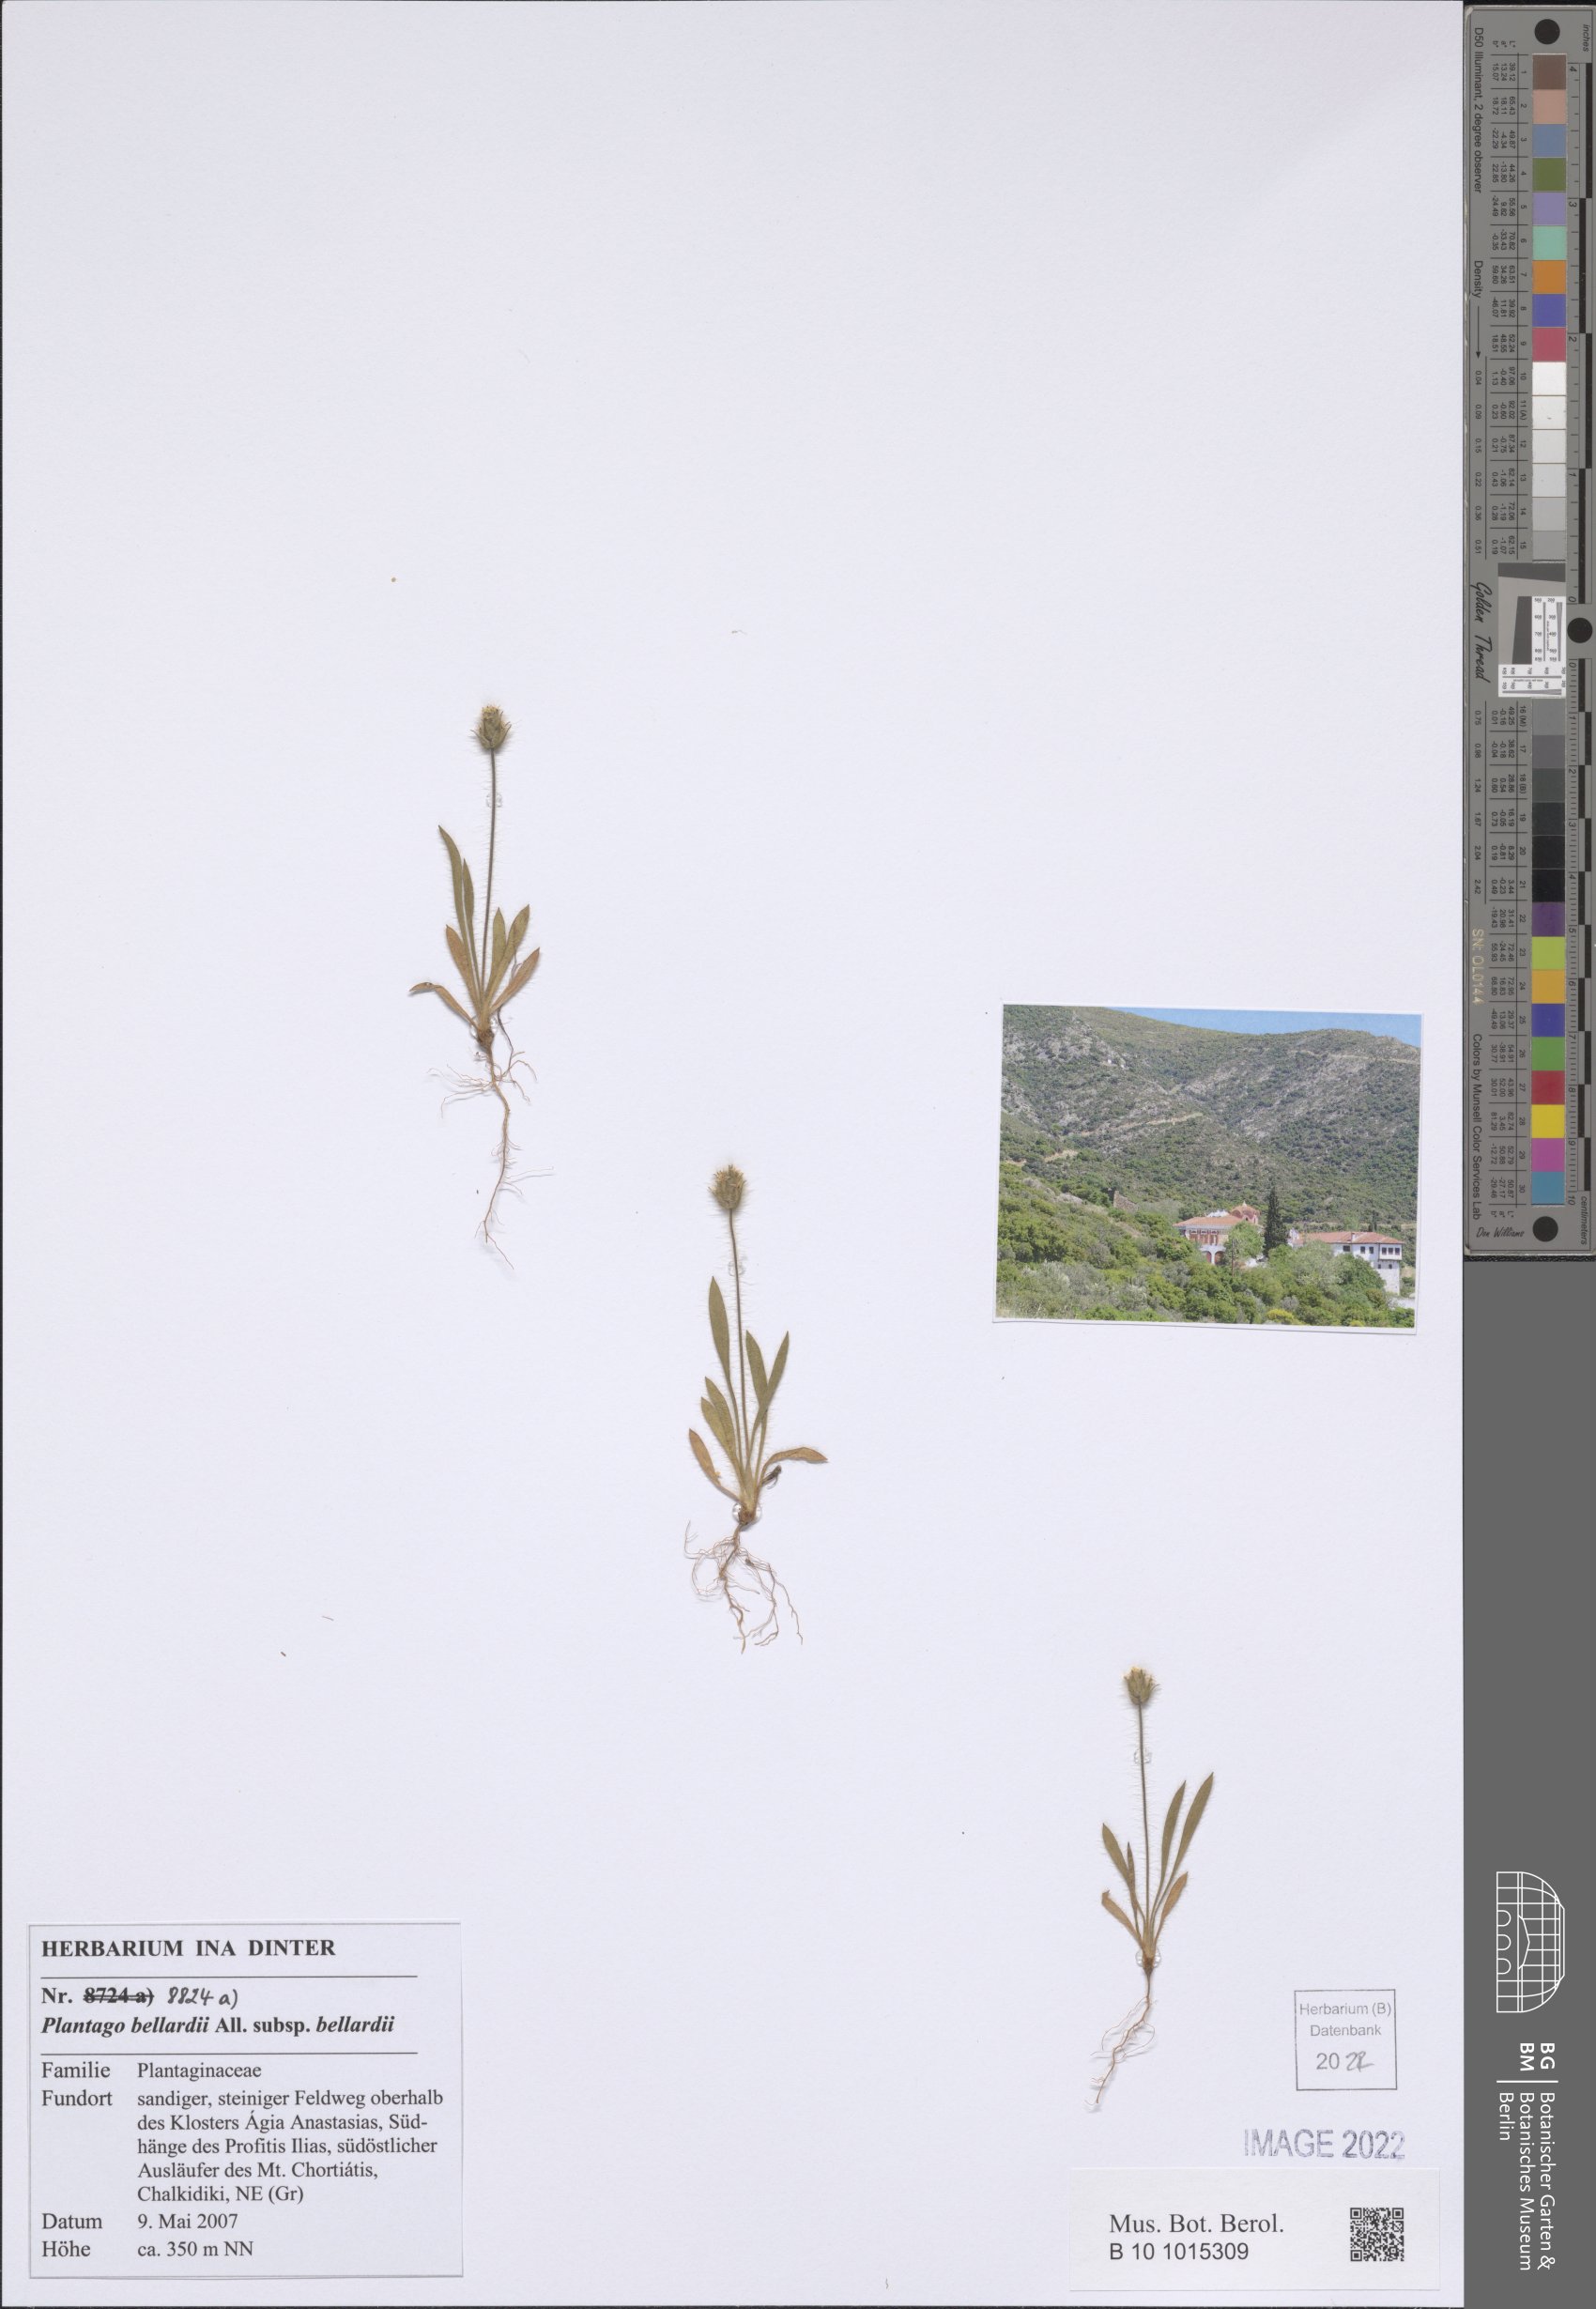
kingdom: Plantae
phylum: Tracheophyta
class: Magnoliopsida
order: Lamiales
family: Plantaginaceae
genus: Plantago
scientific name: Plantago bellardii
